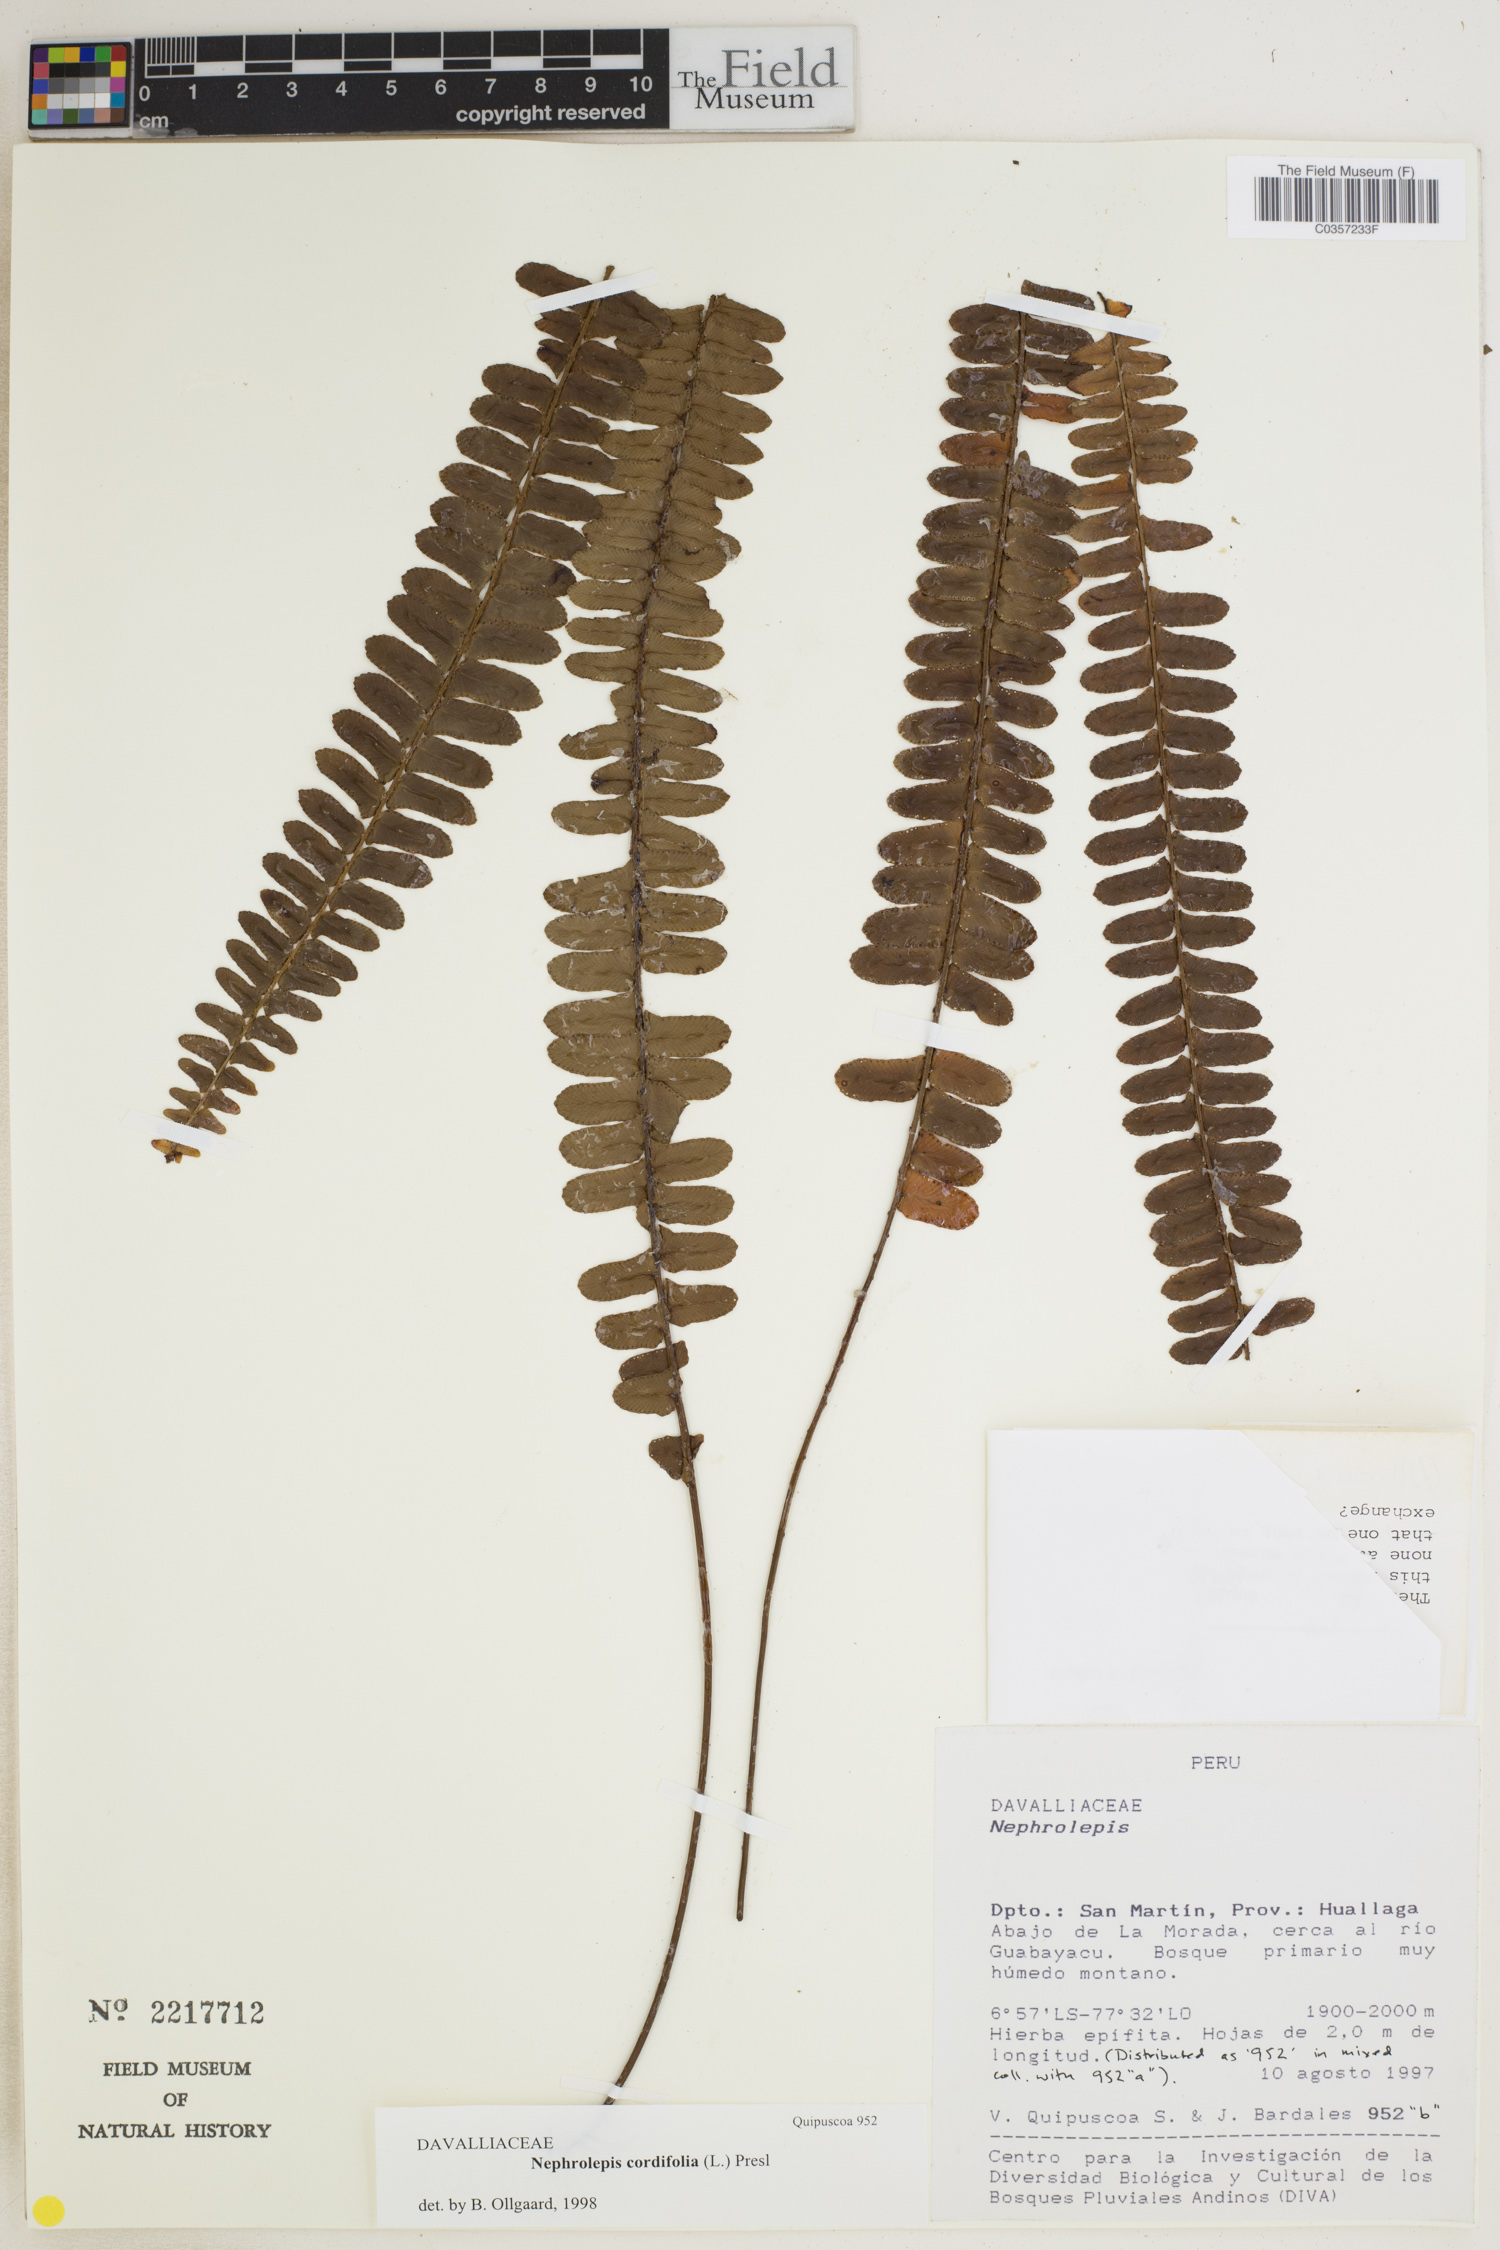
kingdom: Plantae
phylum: Tracheophyta
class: Polypodiopsida
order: Polypodiales
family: Nephrolepidaceae
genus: Nephrolepis
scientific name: Nephrolepis cordifolia
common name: Narrow swordfern
